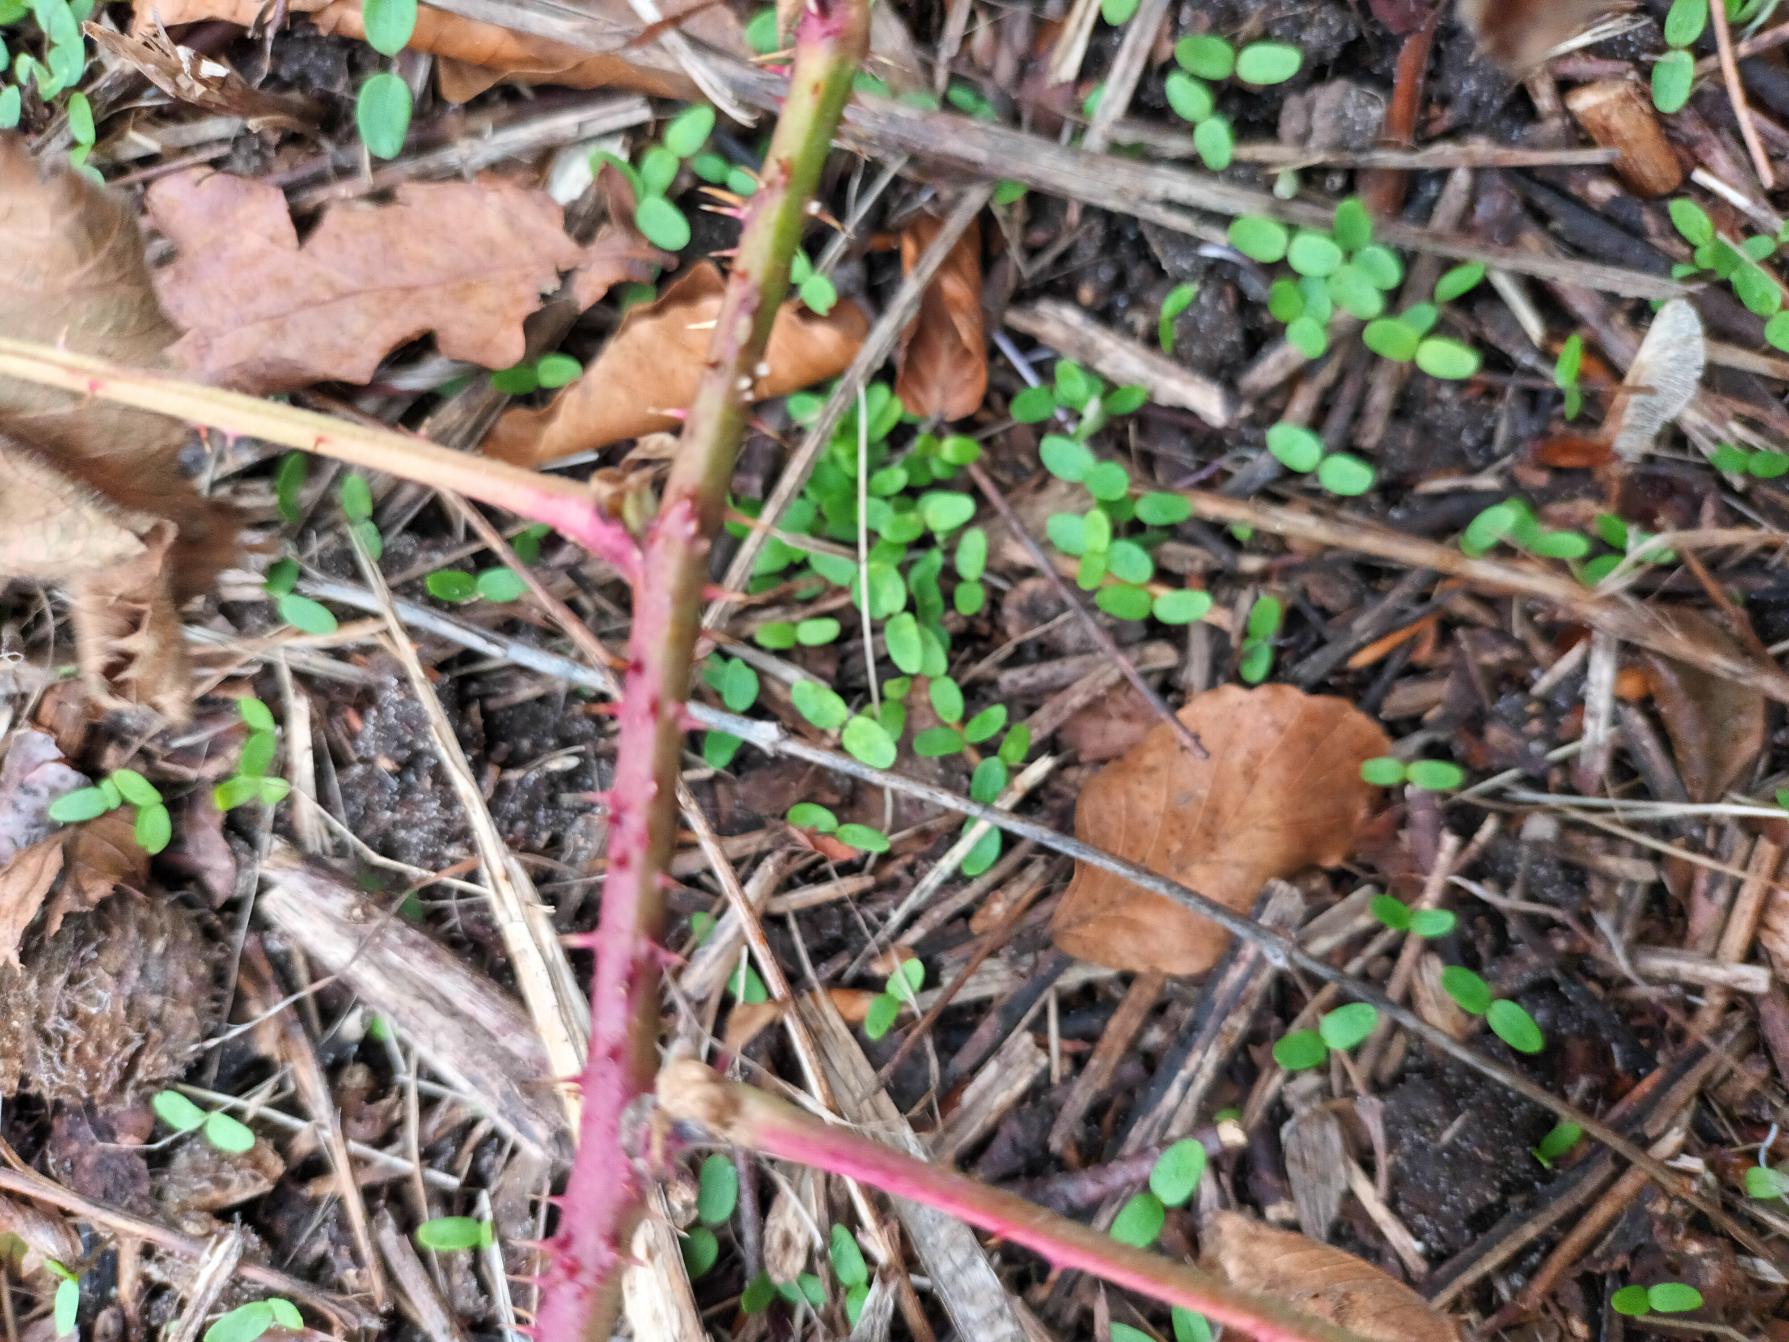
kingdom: Plantae
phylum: Tracheophyta
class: Magnoliopsida
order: Rosales
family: Rosaceae
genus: Rubus
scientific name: Rubus glauciformis
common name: Blådugget hasselbrombær
